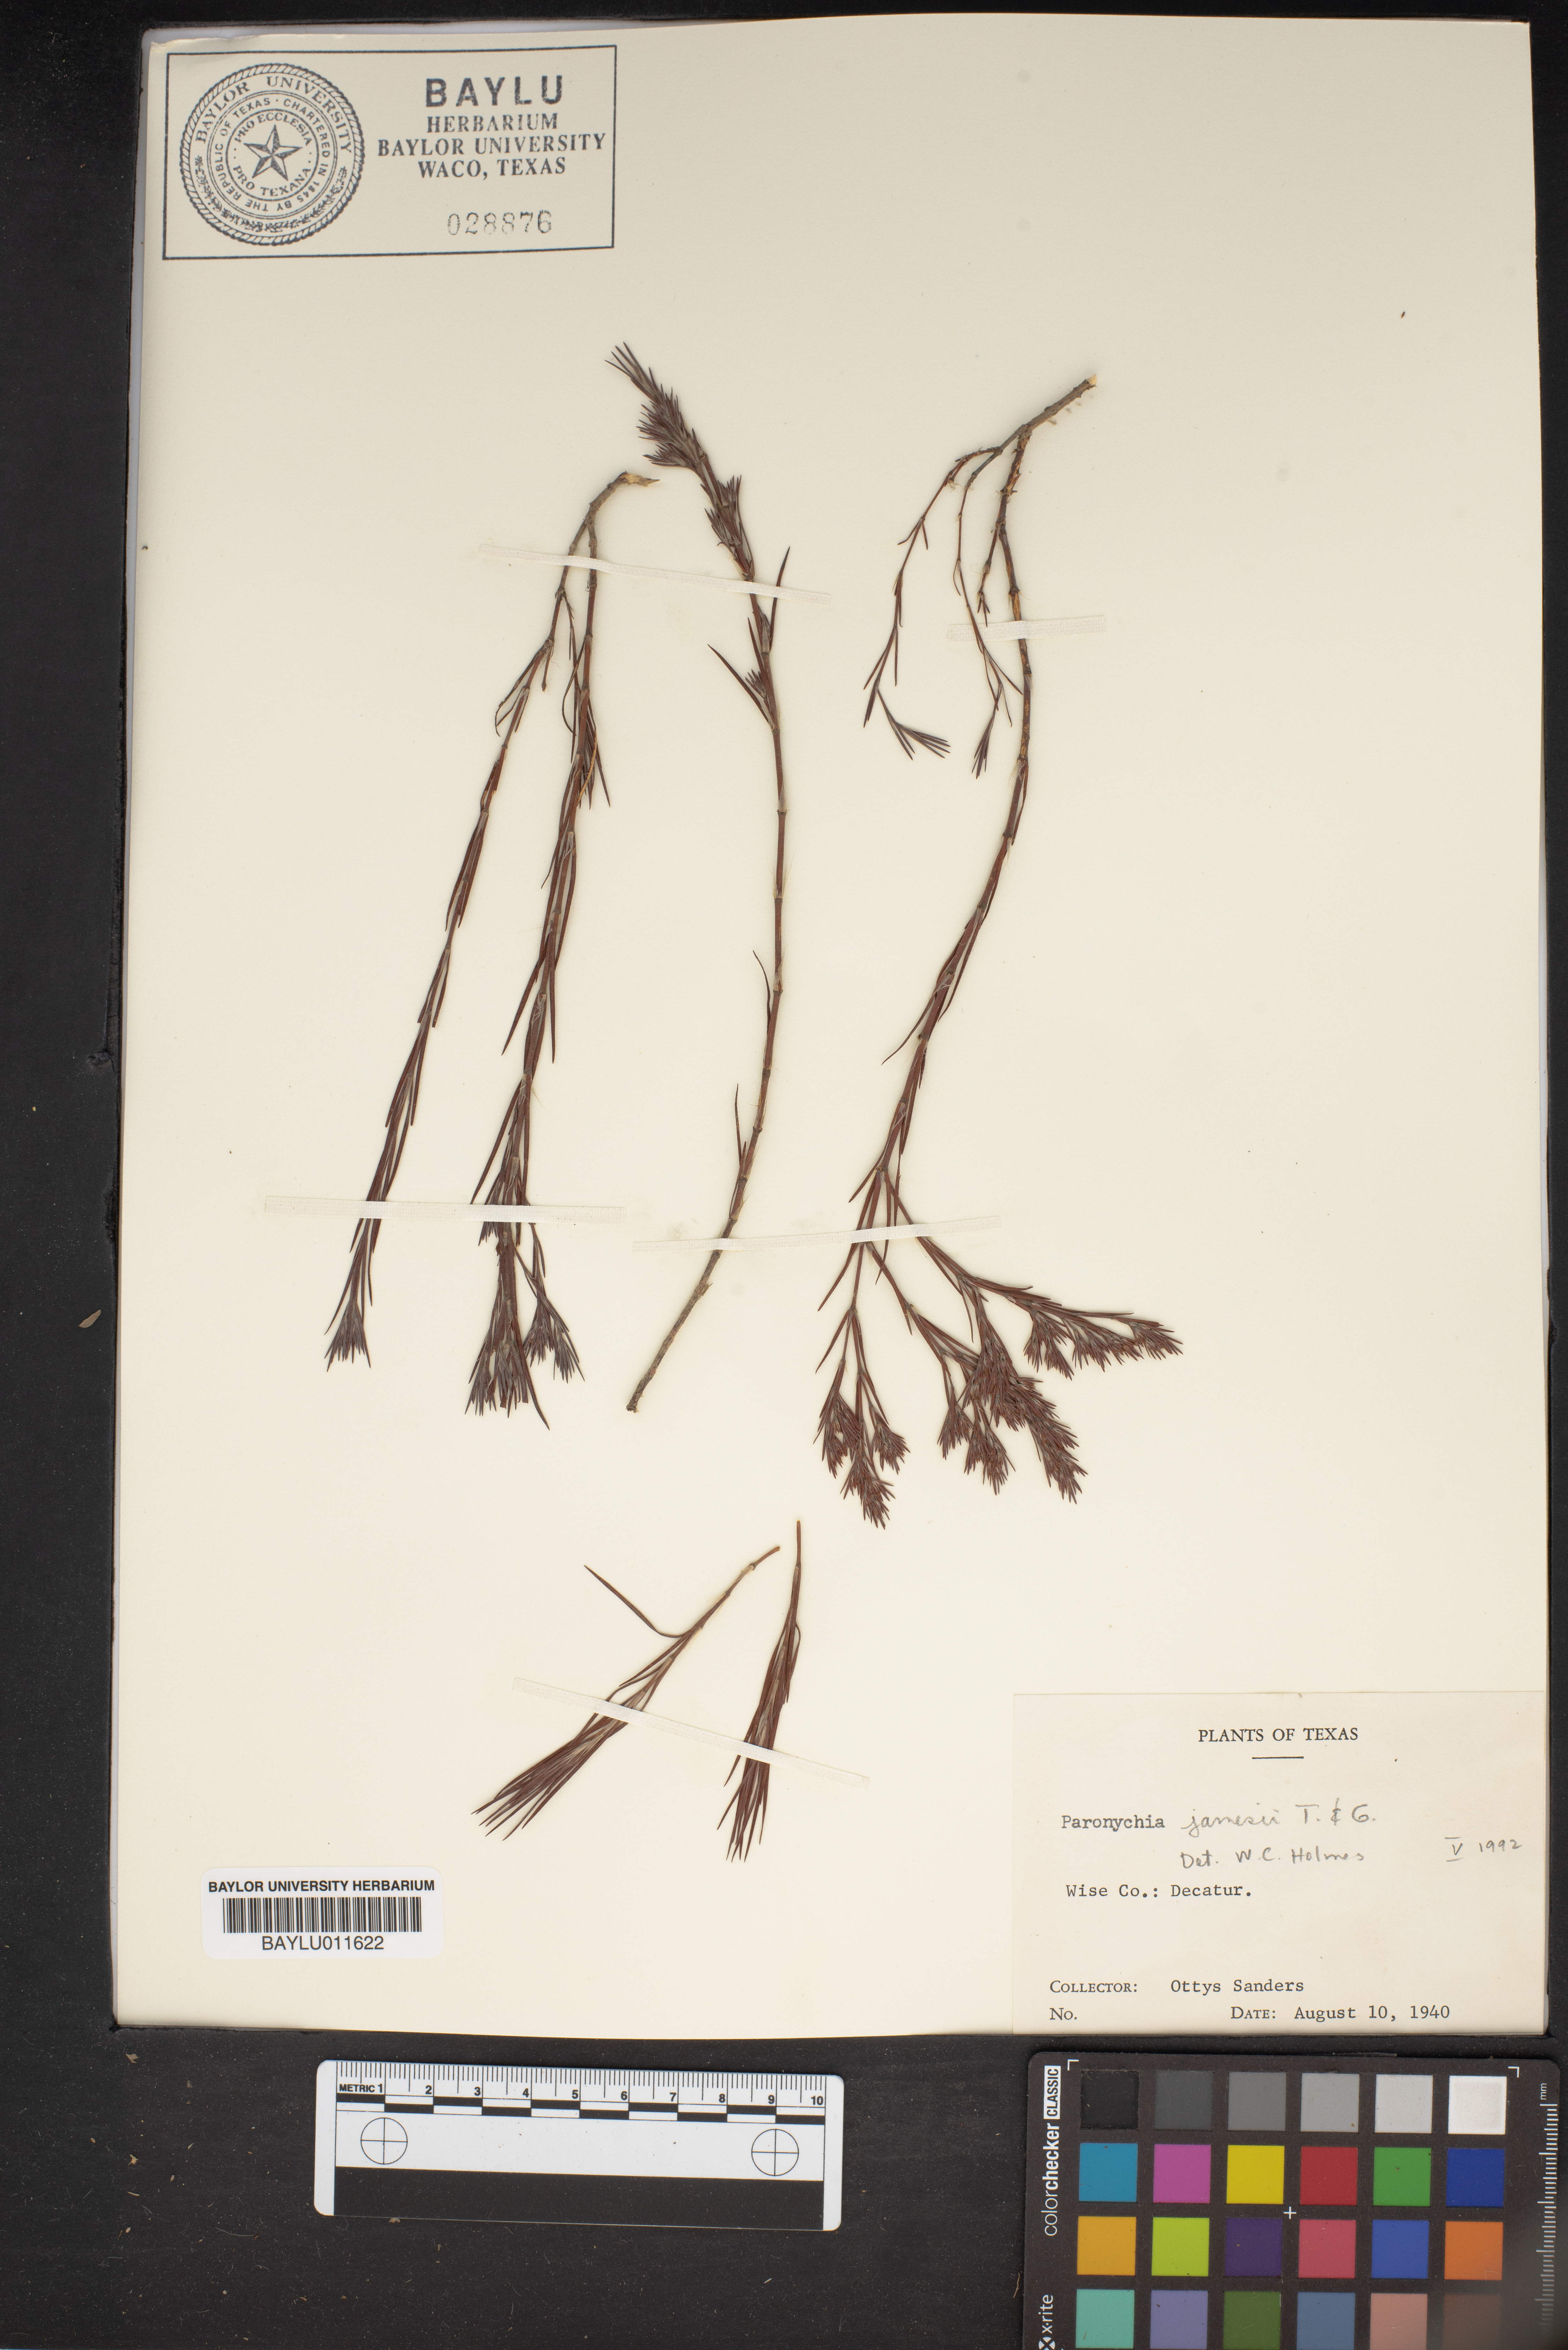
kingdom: Plantae
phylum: Tracheophyta
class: Magnoliopsida
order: Caryophyllales
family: Caryophyllaceae
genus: Paronychia
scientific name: Paronychia jamesii
